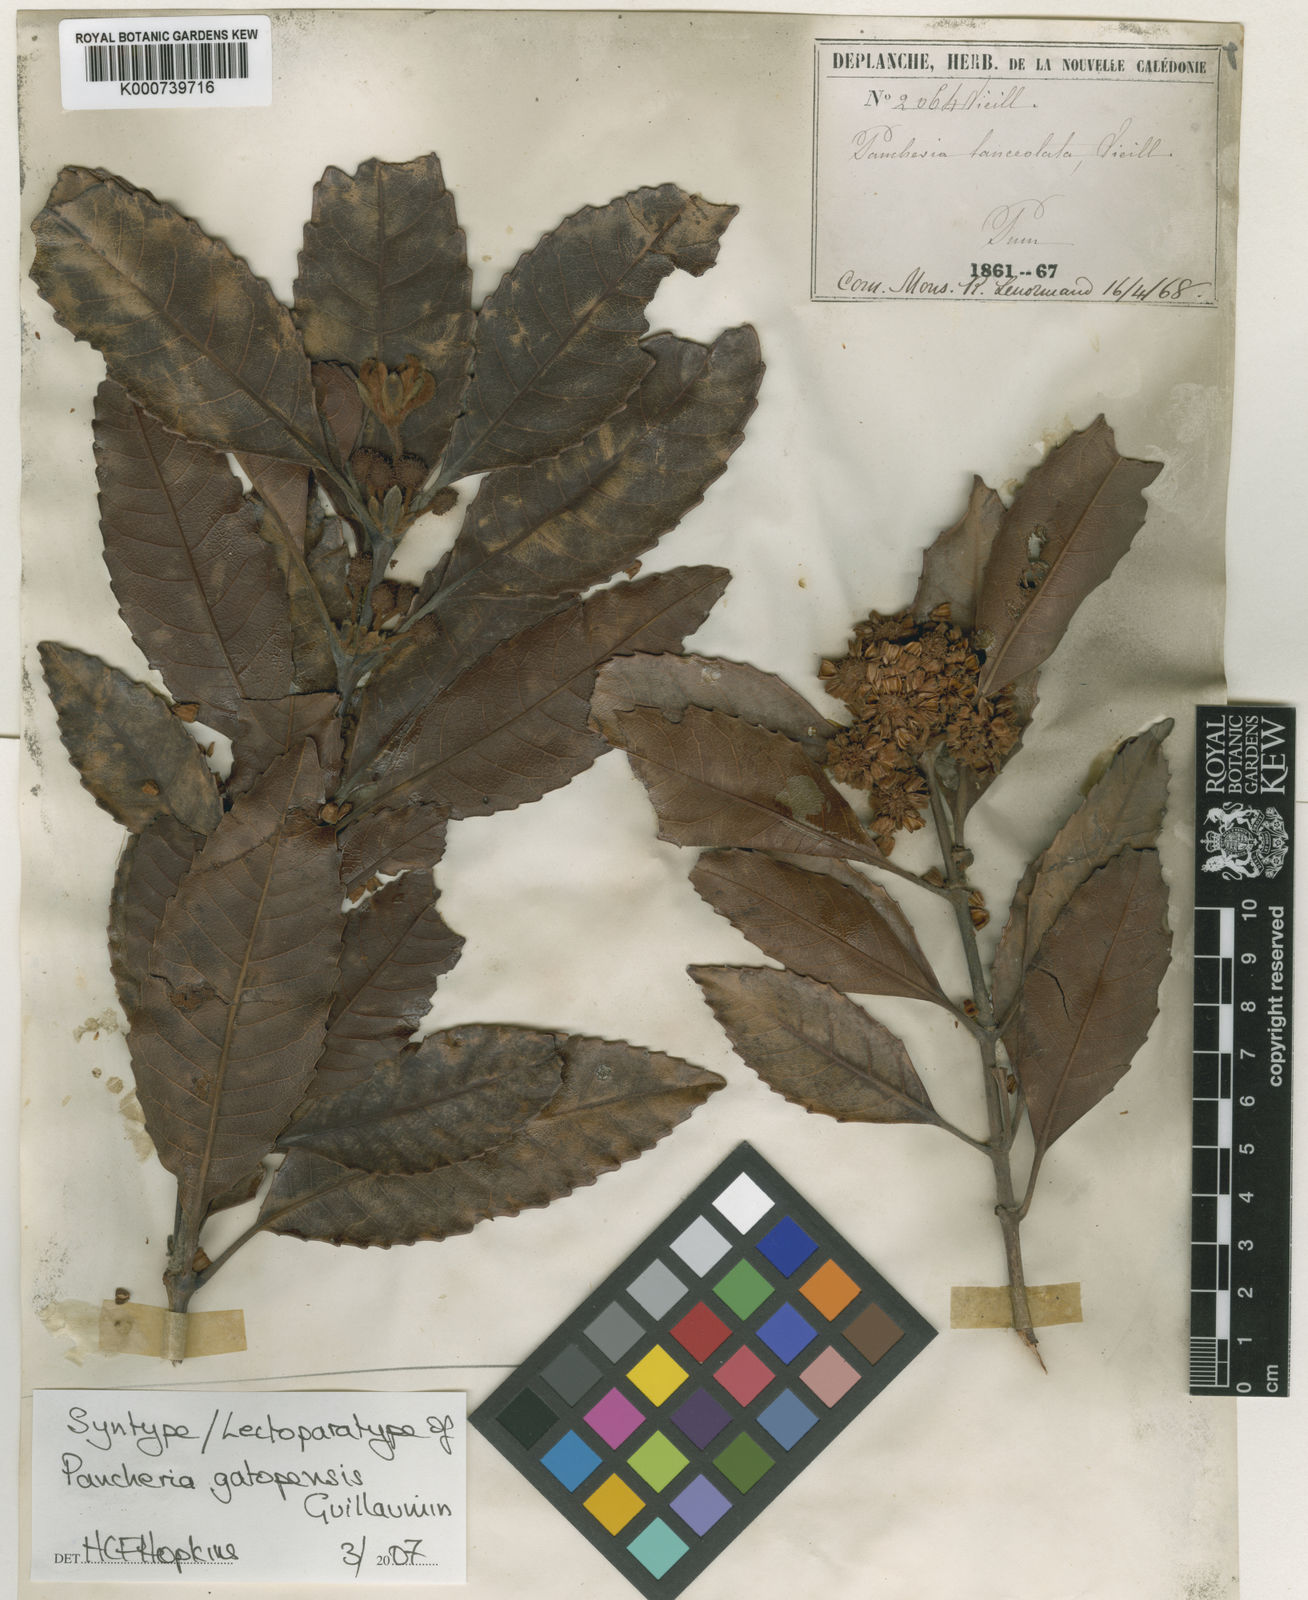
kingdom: Plantae
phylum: Tracheophyta
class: Magnoliopsida
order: Oxalidales
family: Cunoniaceae
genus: Pancheria
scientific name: Pancheria gatopensis
